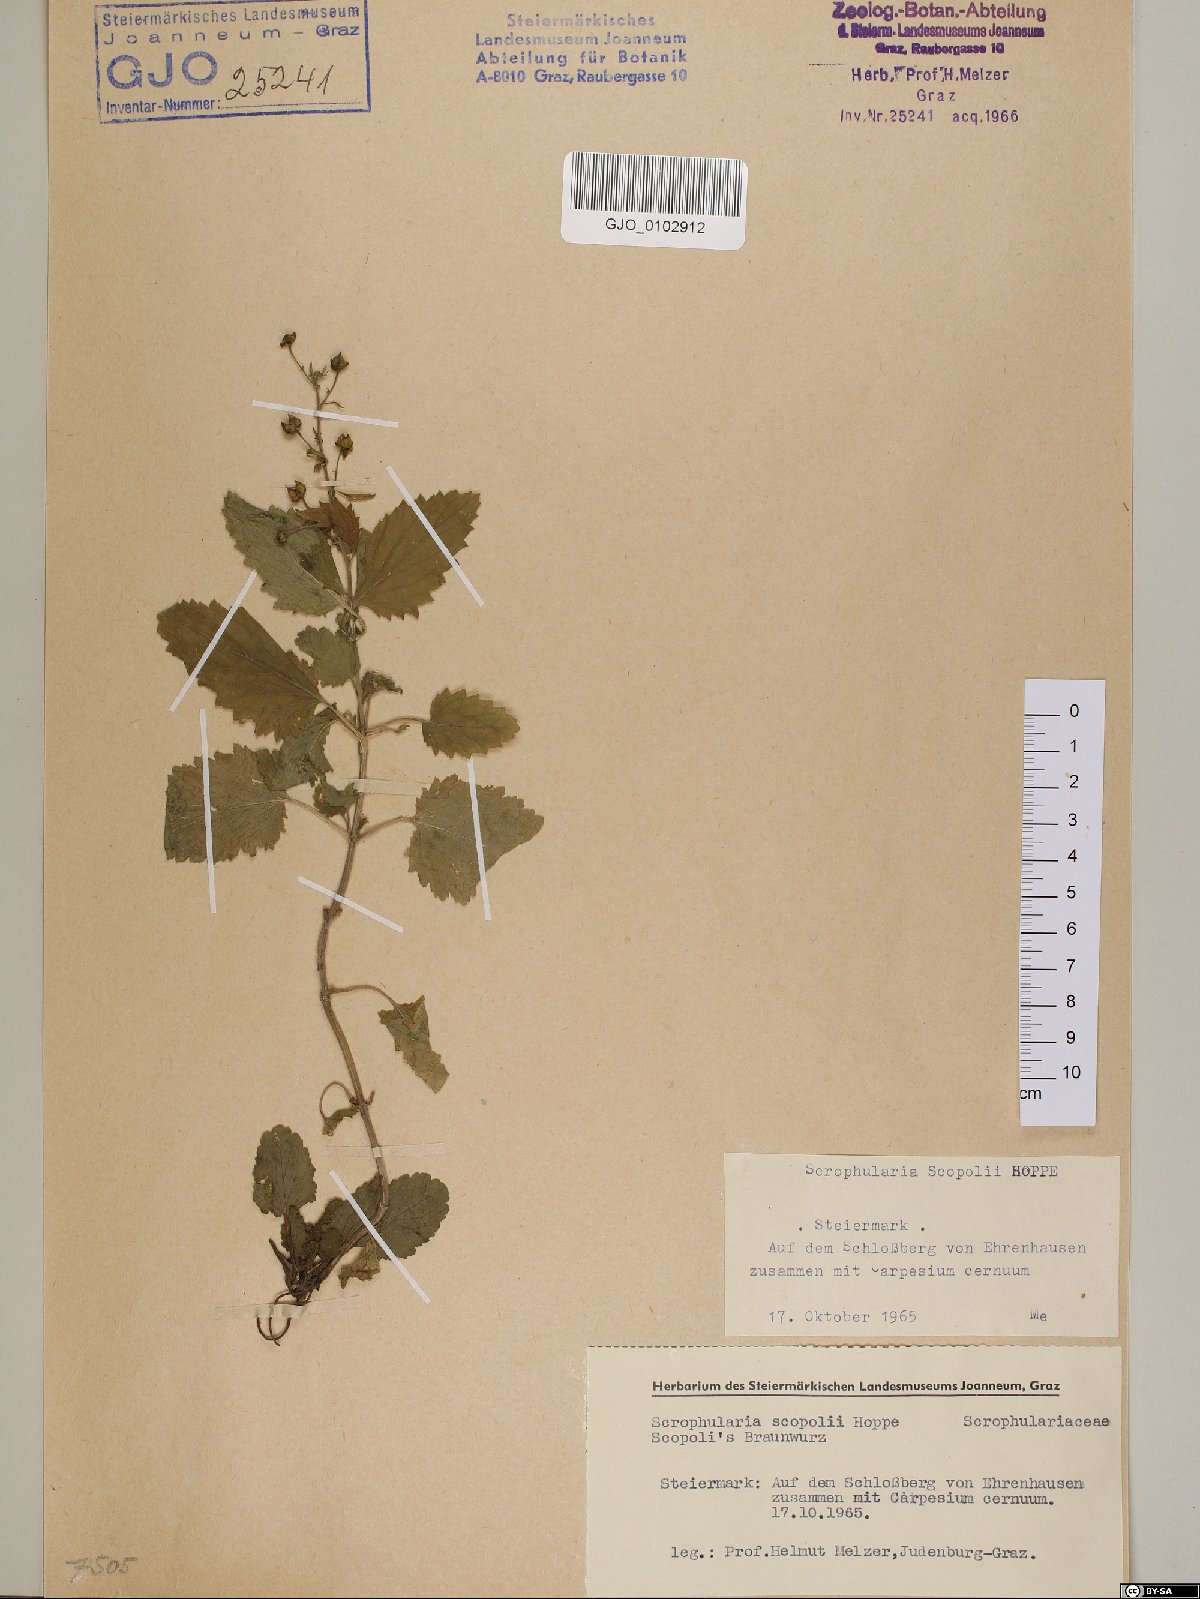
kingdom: Plantae
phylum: Tracheophyta
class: Magnoliopsida
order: Lamiales
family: Scrophulariaceae
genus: Scrophularia
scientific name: Scrophularia scopolii
